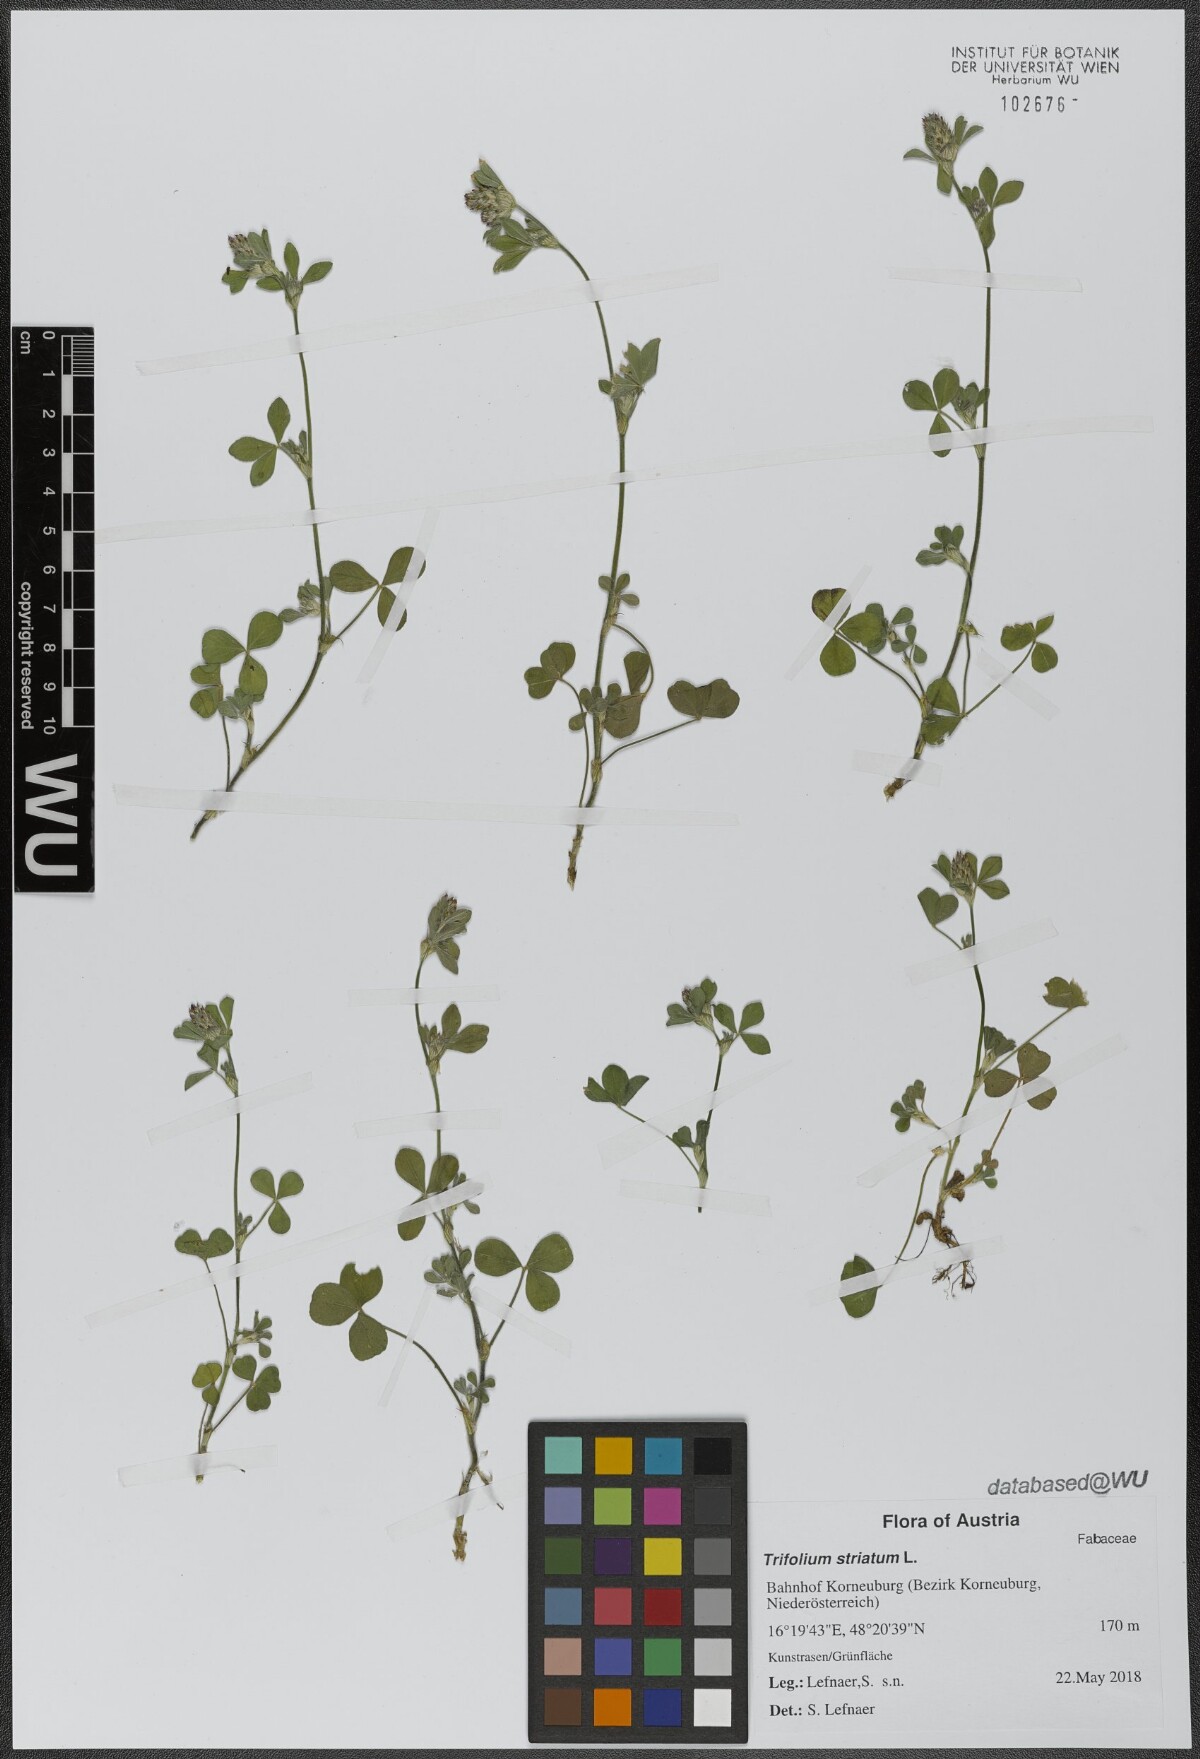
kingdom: Plantae
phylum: Tracheophyta
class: Magnoliopsida
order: Fabales
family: Fabaceae
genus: Trifolium
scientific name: Trifolium striatum
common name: Knotted clover
